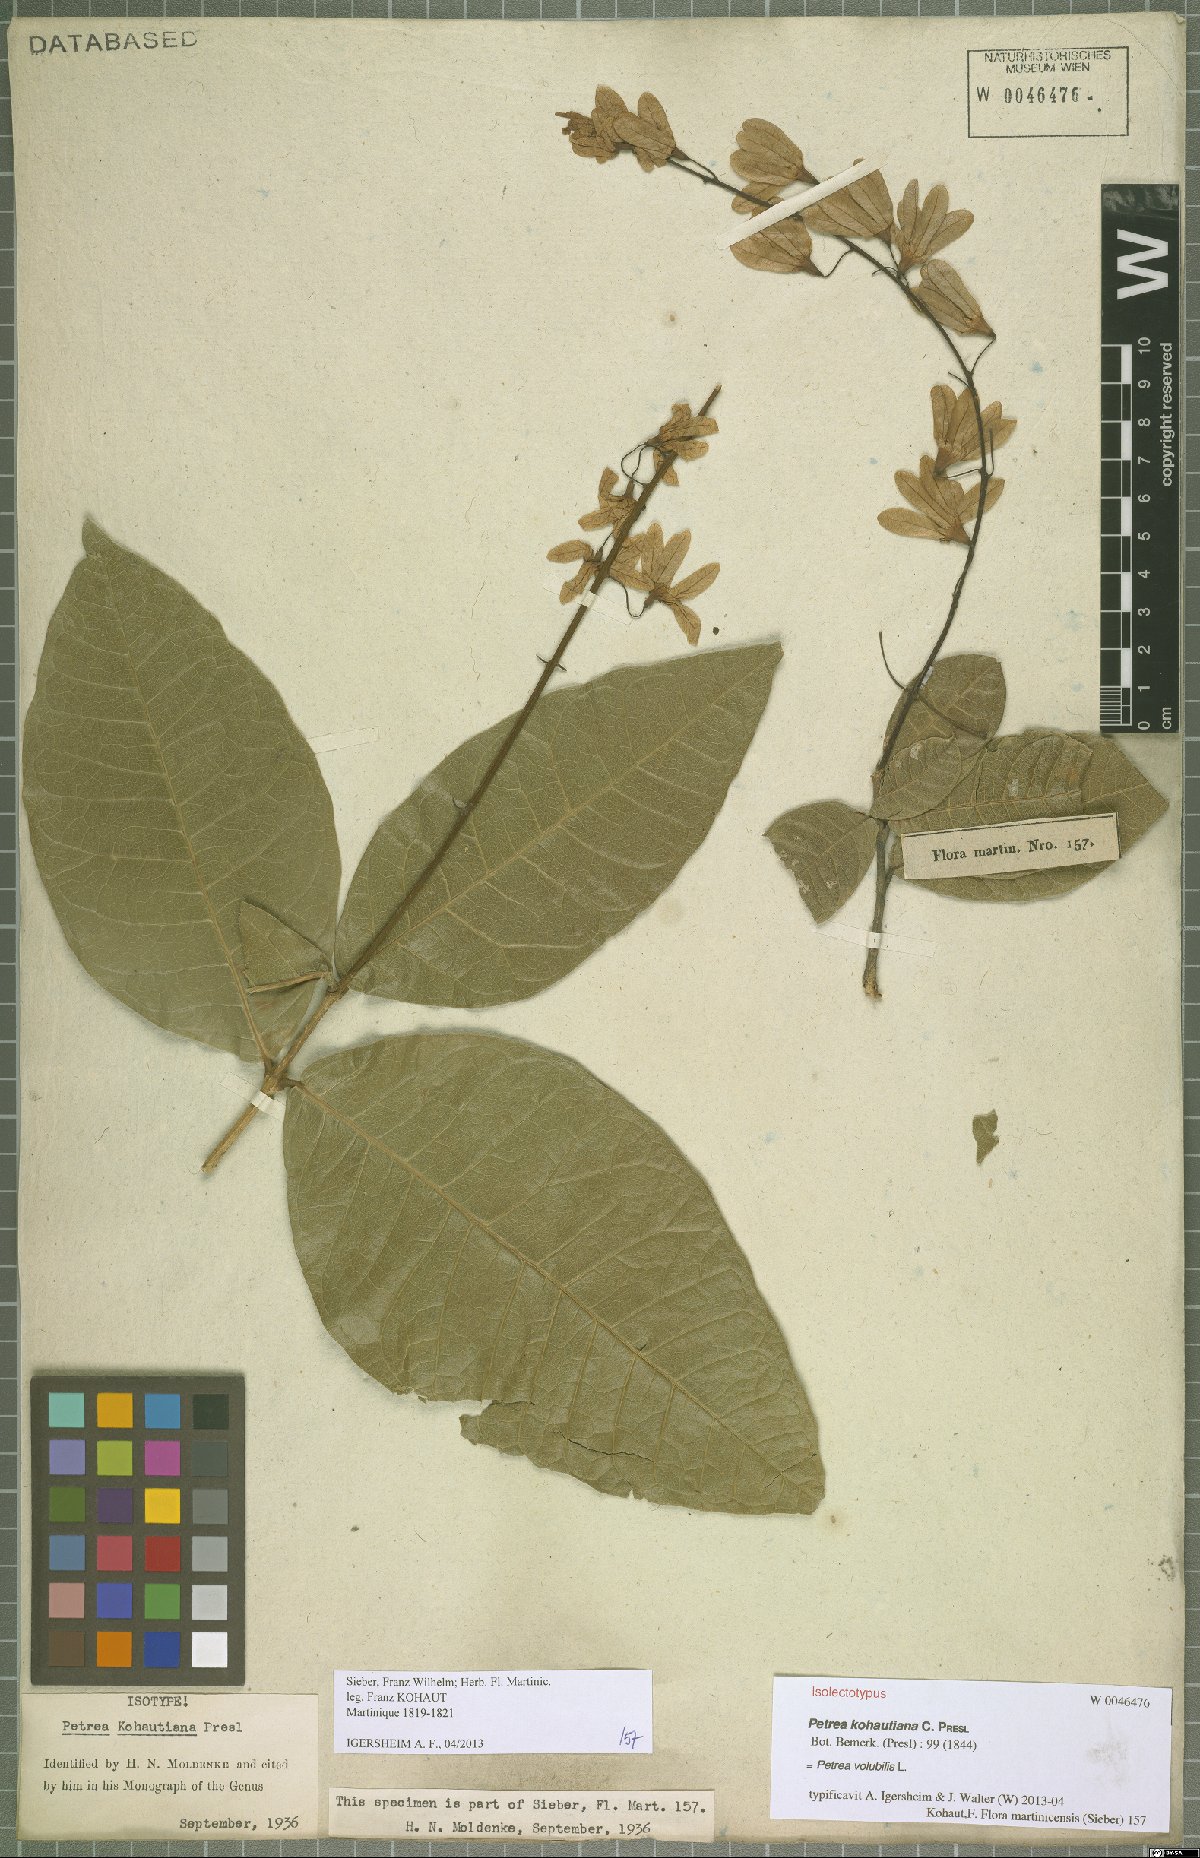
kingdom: Plantae
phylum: Tracheophyta
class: Magnoliopsida
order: Lamiales
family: Verbenaceae
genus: Petrea
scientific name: Petrea volubilis
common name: Queen's-wreath
